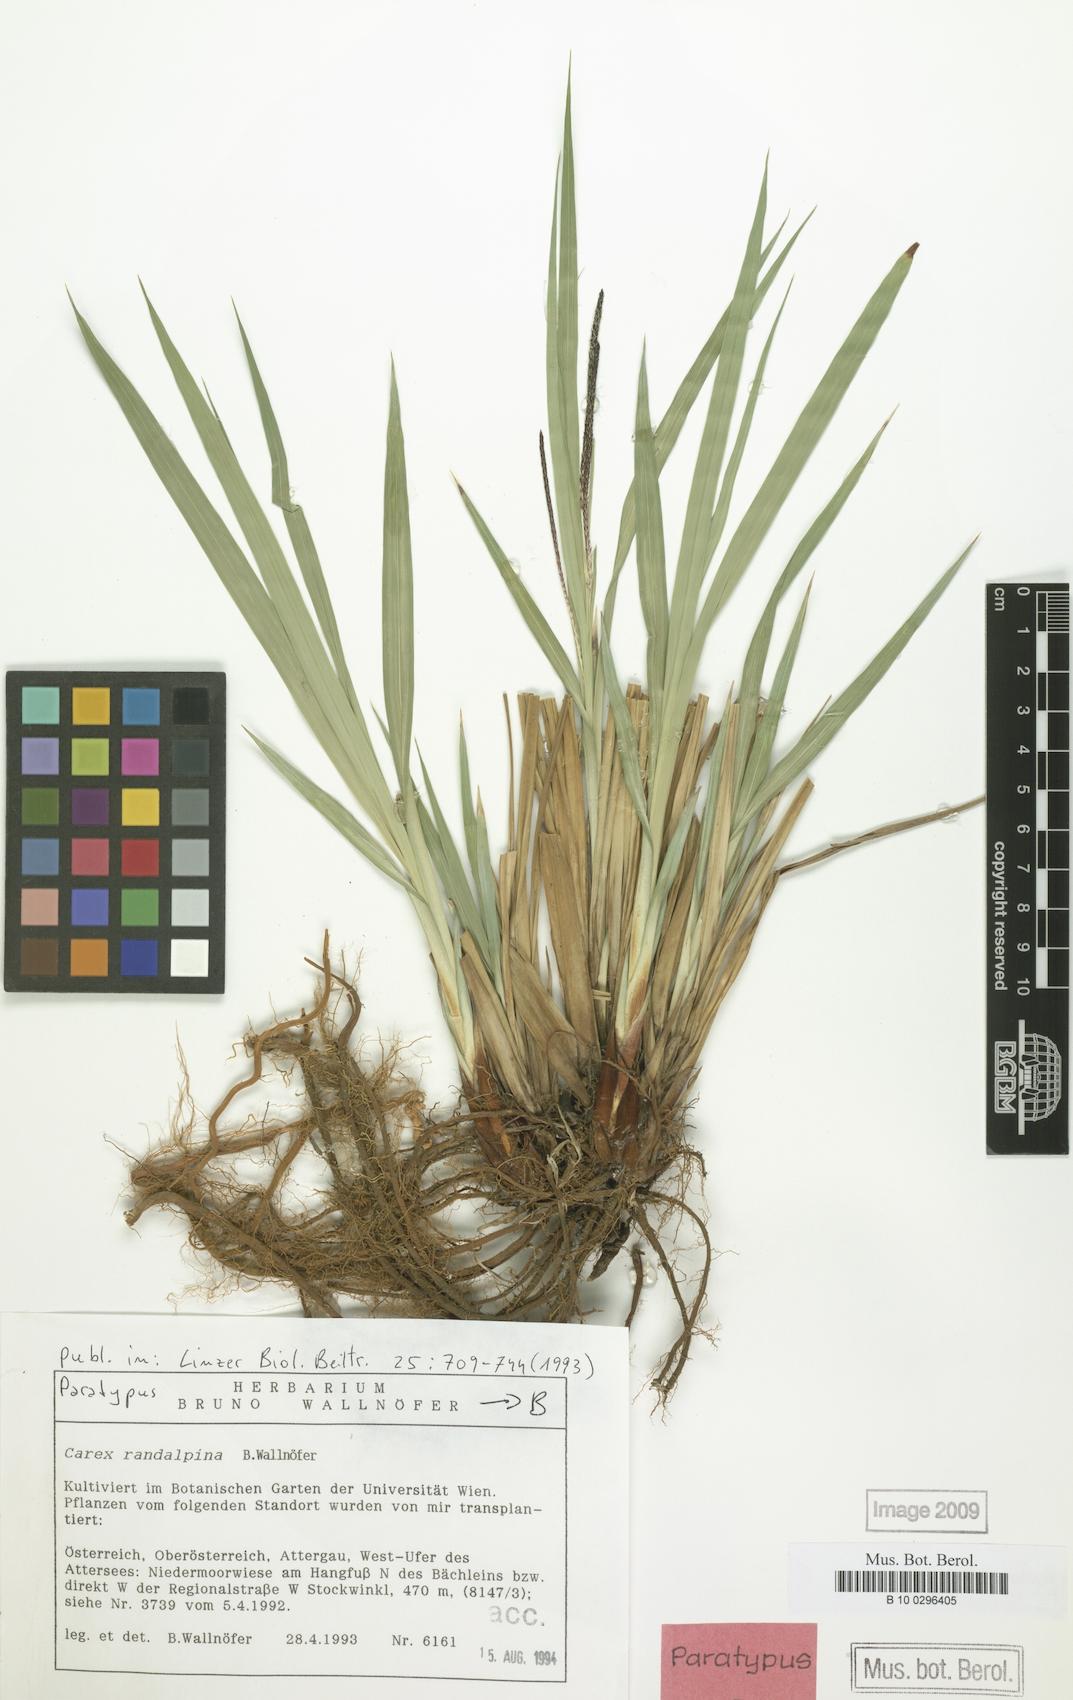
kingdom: Plantae
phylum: Tracheophyta
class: Liliopsida
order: Poales
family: Cyperaceae
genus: Carex
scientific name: Carex randalpina
